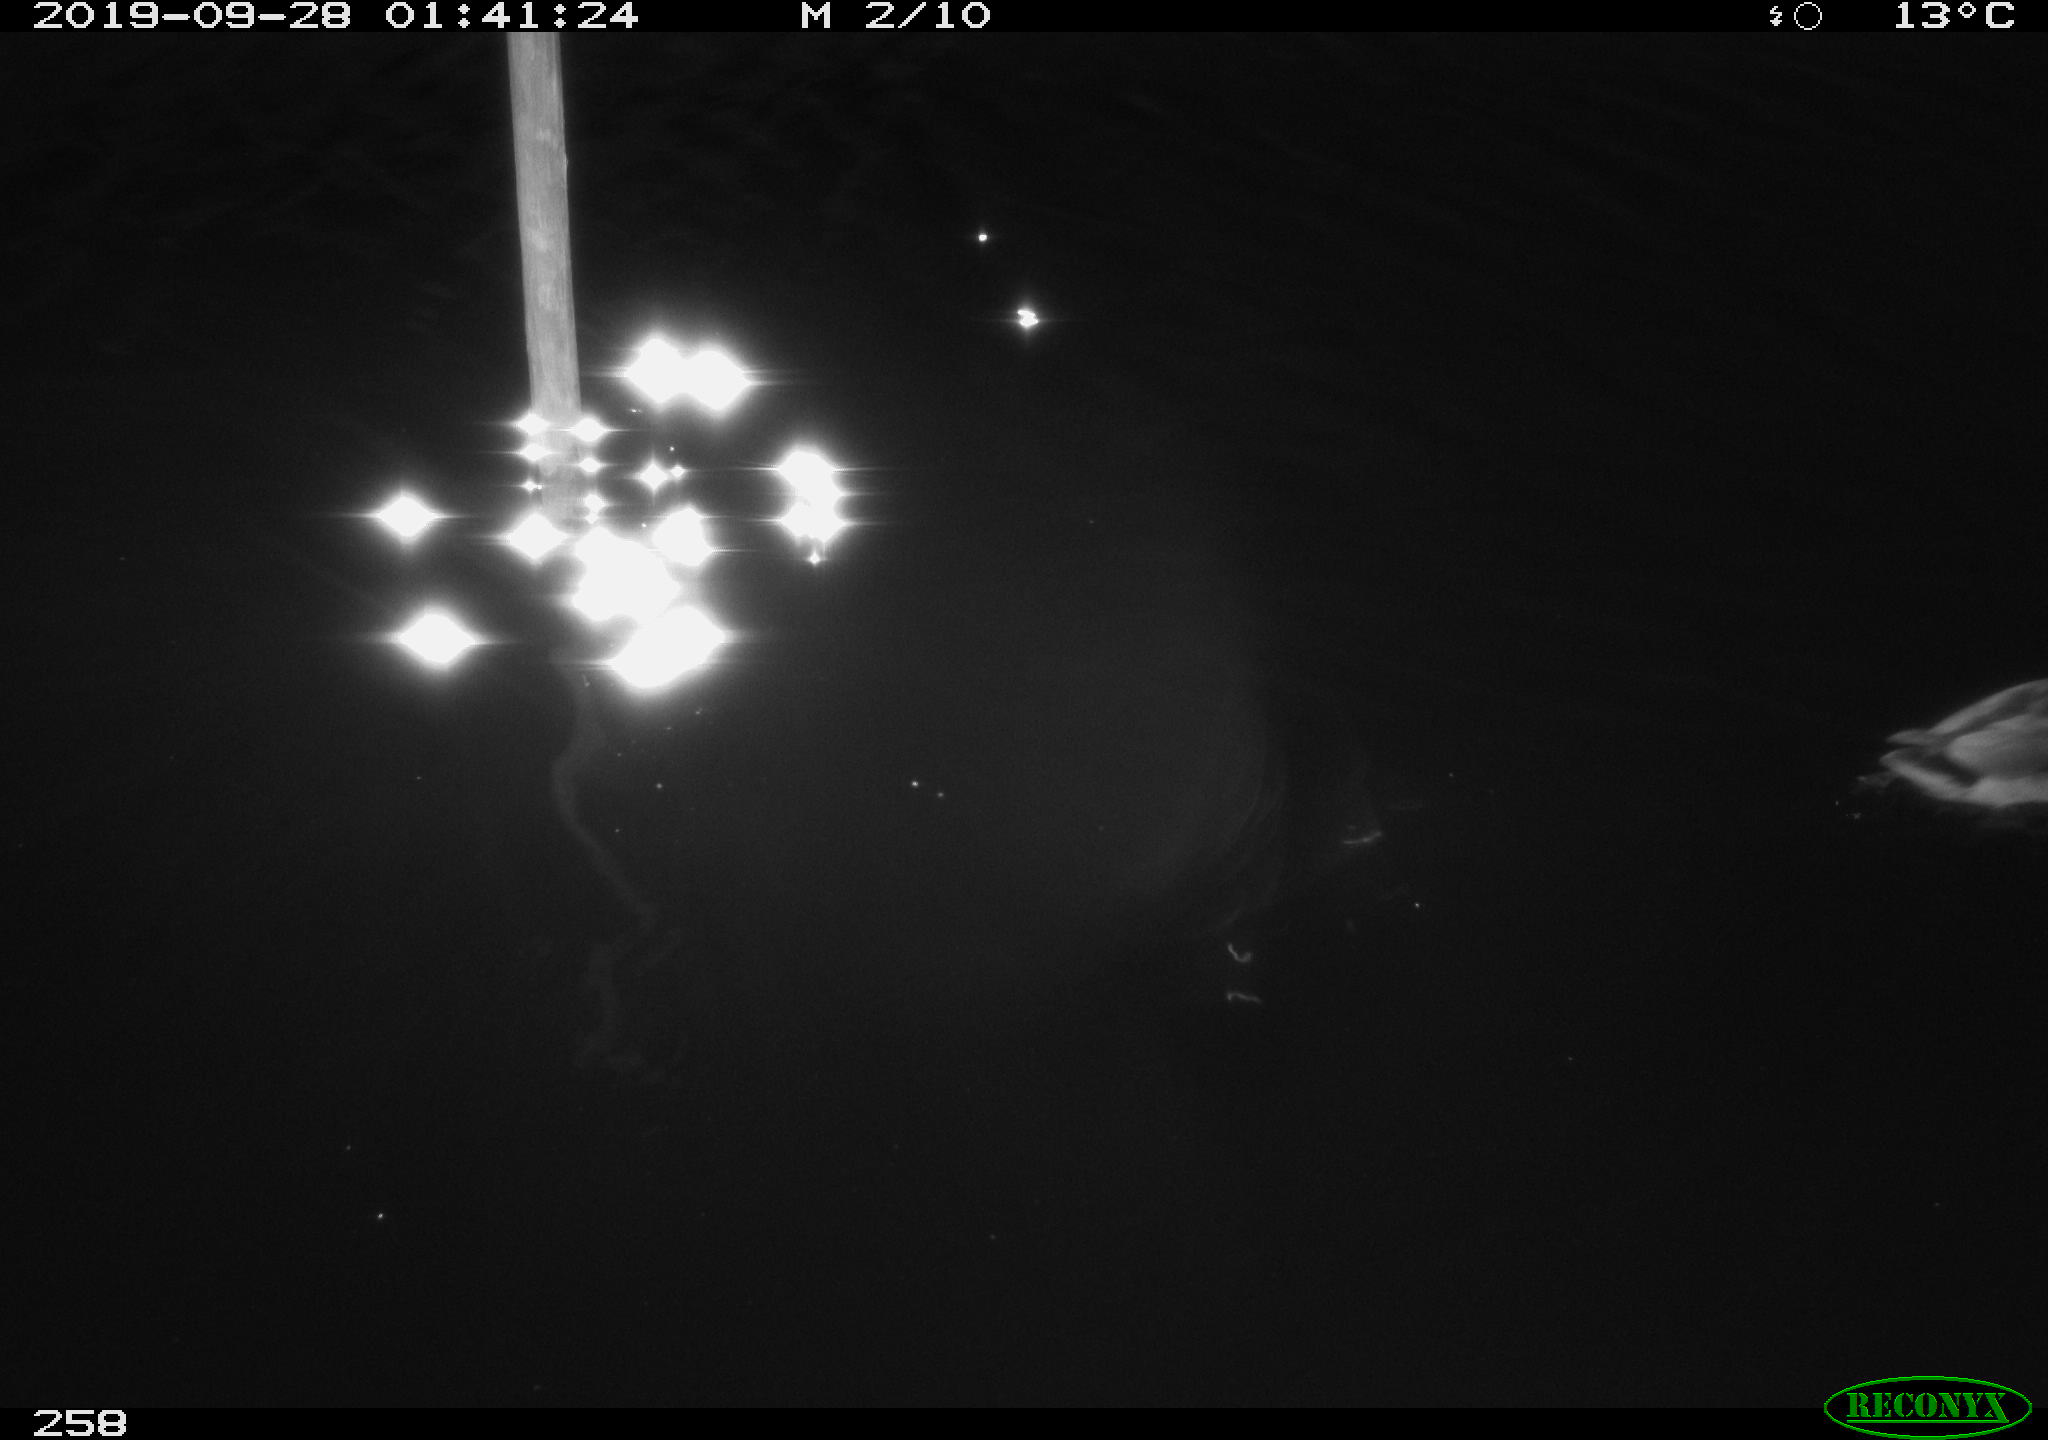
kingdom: Animalia
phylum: Chordata
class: Aves
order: Anseriformes
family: Anatidae
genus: Anas
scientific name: Anas platyrhynchos
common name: Mallard
